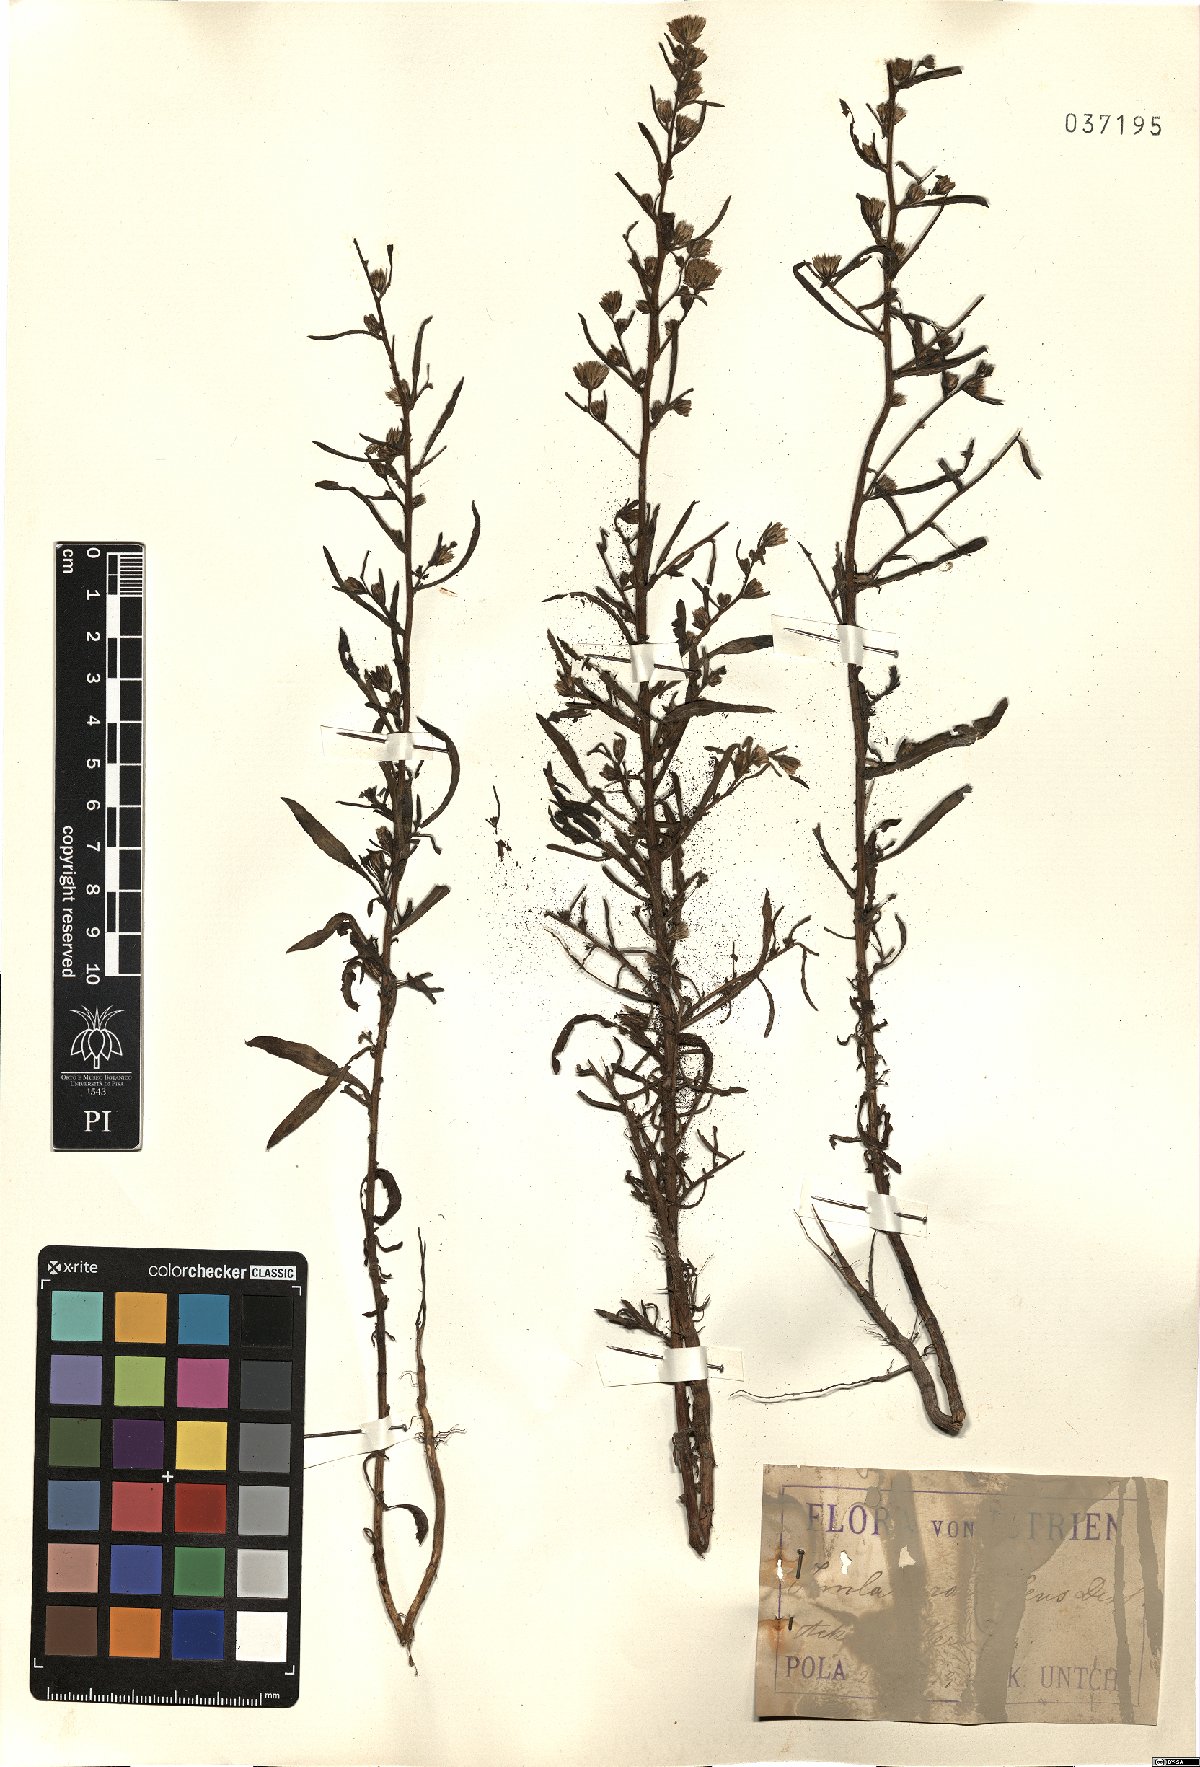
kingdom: Plantae
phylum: Tracheophyta
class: Magnoliopsida
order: Asterales
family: Asteraceae
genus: Dittrichia
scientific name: Dittrichia graveolens
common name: Stinking fleabane
